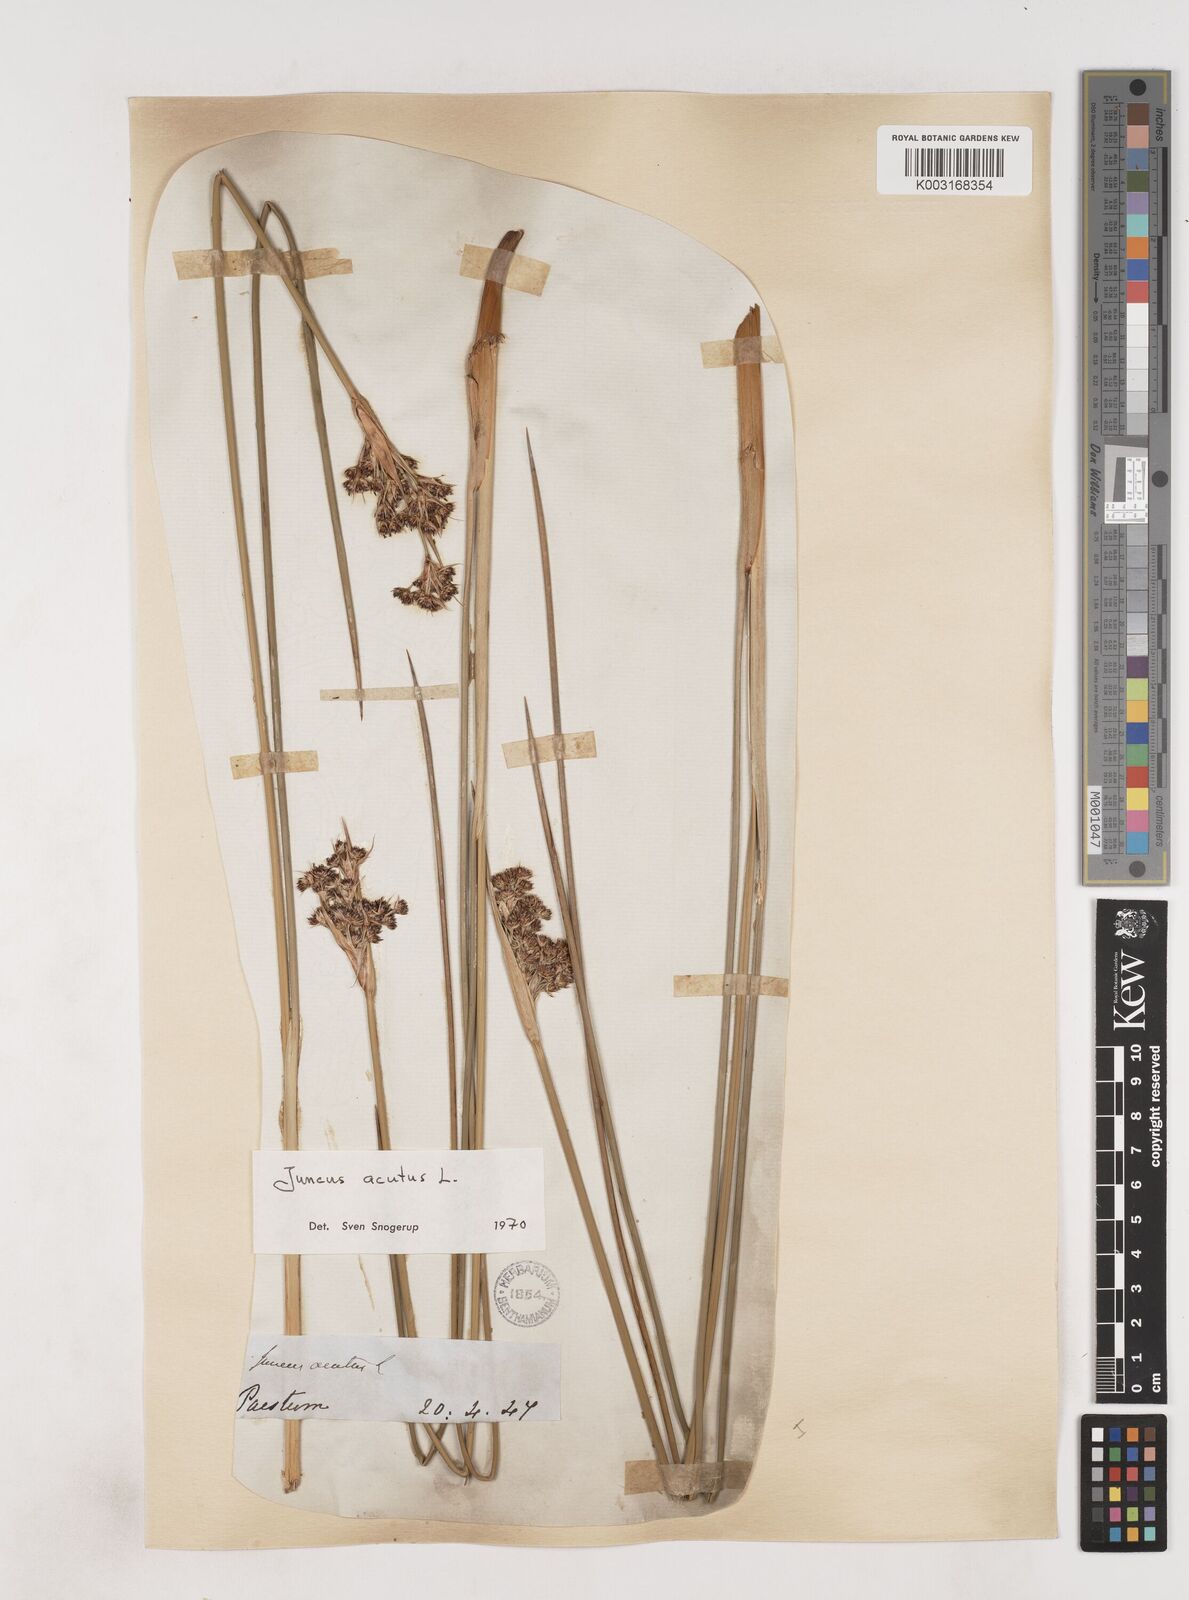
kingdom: Plantae
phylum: Tracheophyta
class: Liliopsida
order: Poales
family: Juncaceae
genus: Juncus
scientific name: Juncus acutus
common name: Sharp rush
